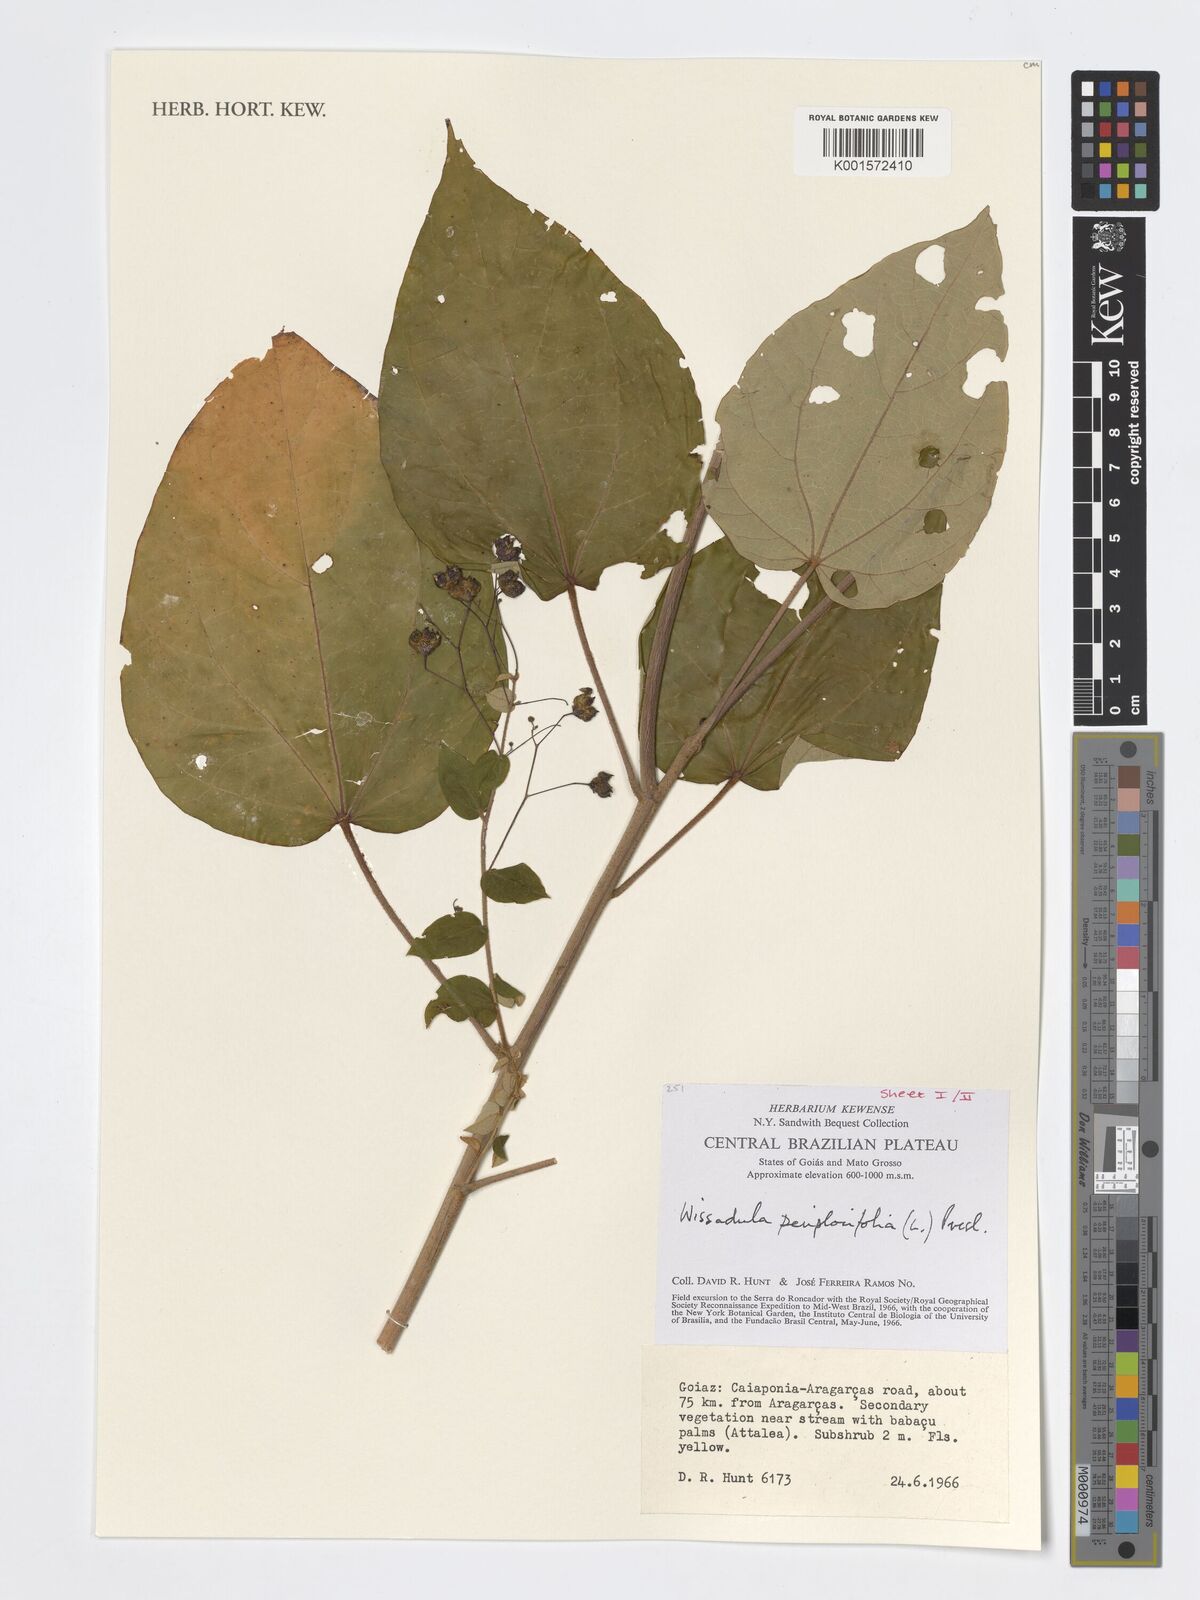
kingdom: Plantae
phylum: Tracheophyta
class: Magnoliopsida
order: Malvales
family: Malvaceae
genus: Wissadula
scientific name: Wissadula periplocifolia
